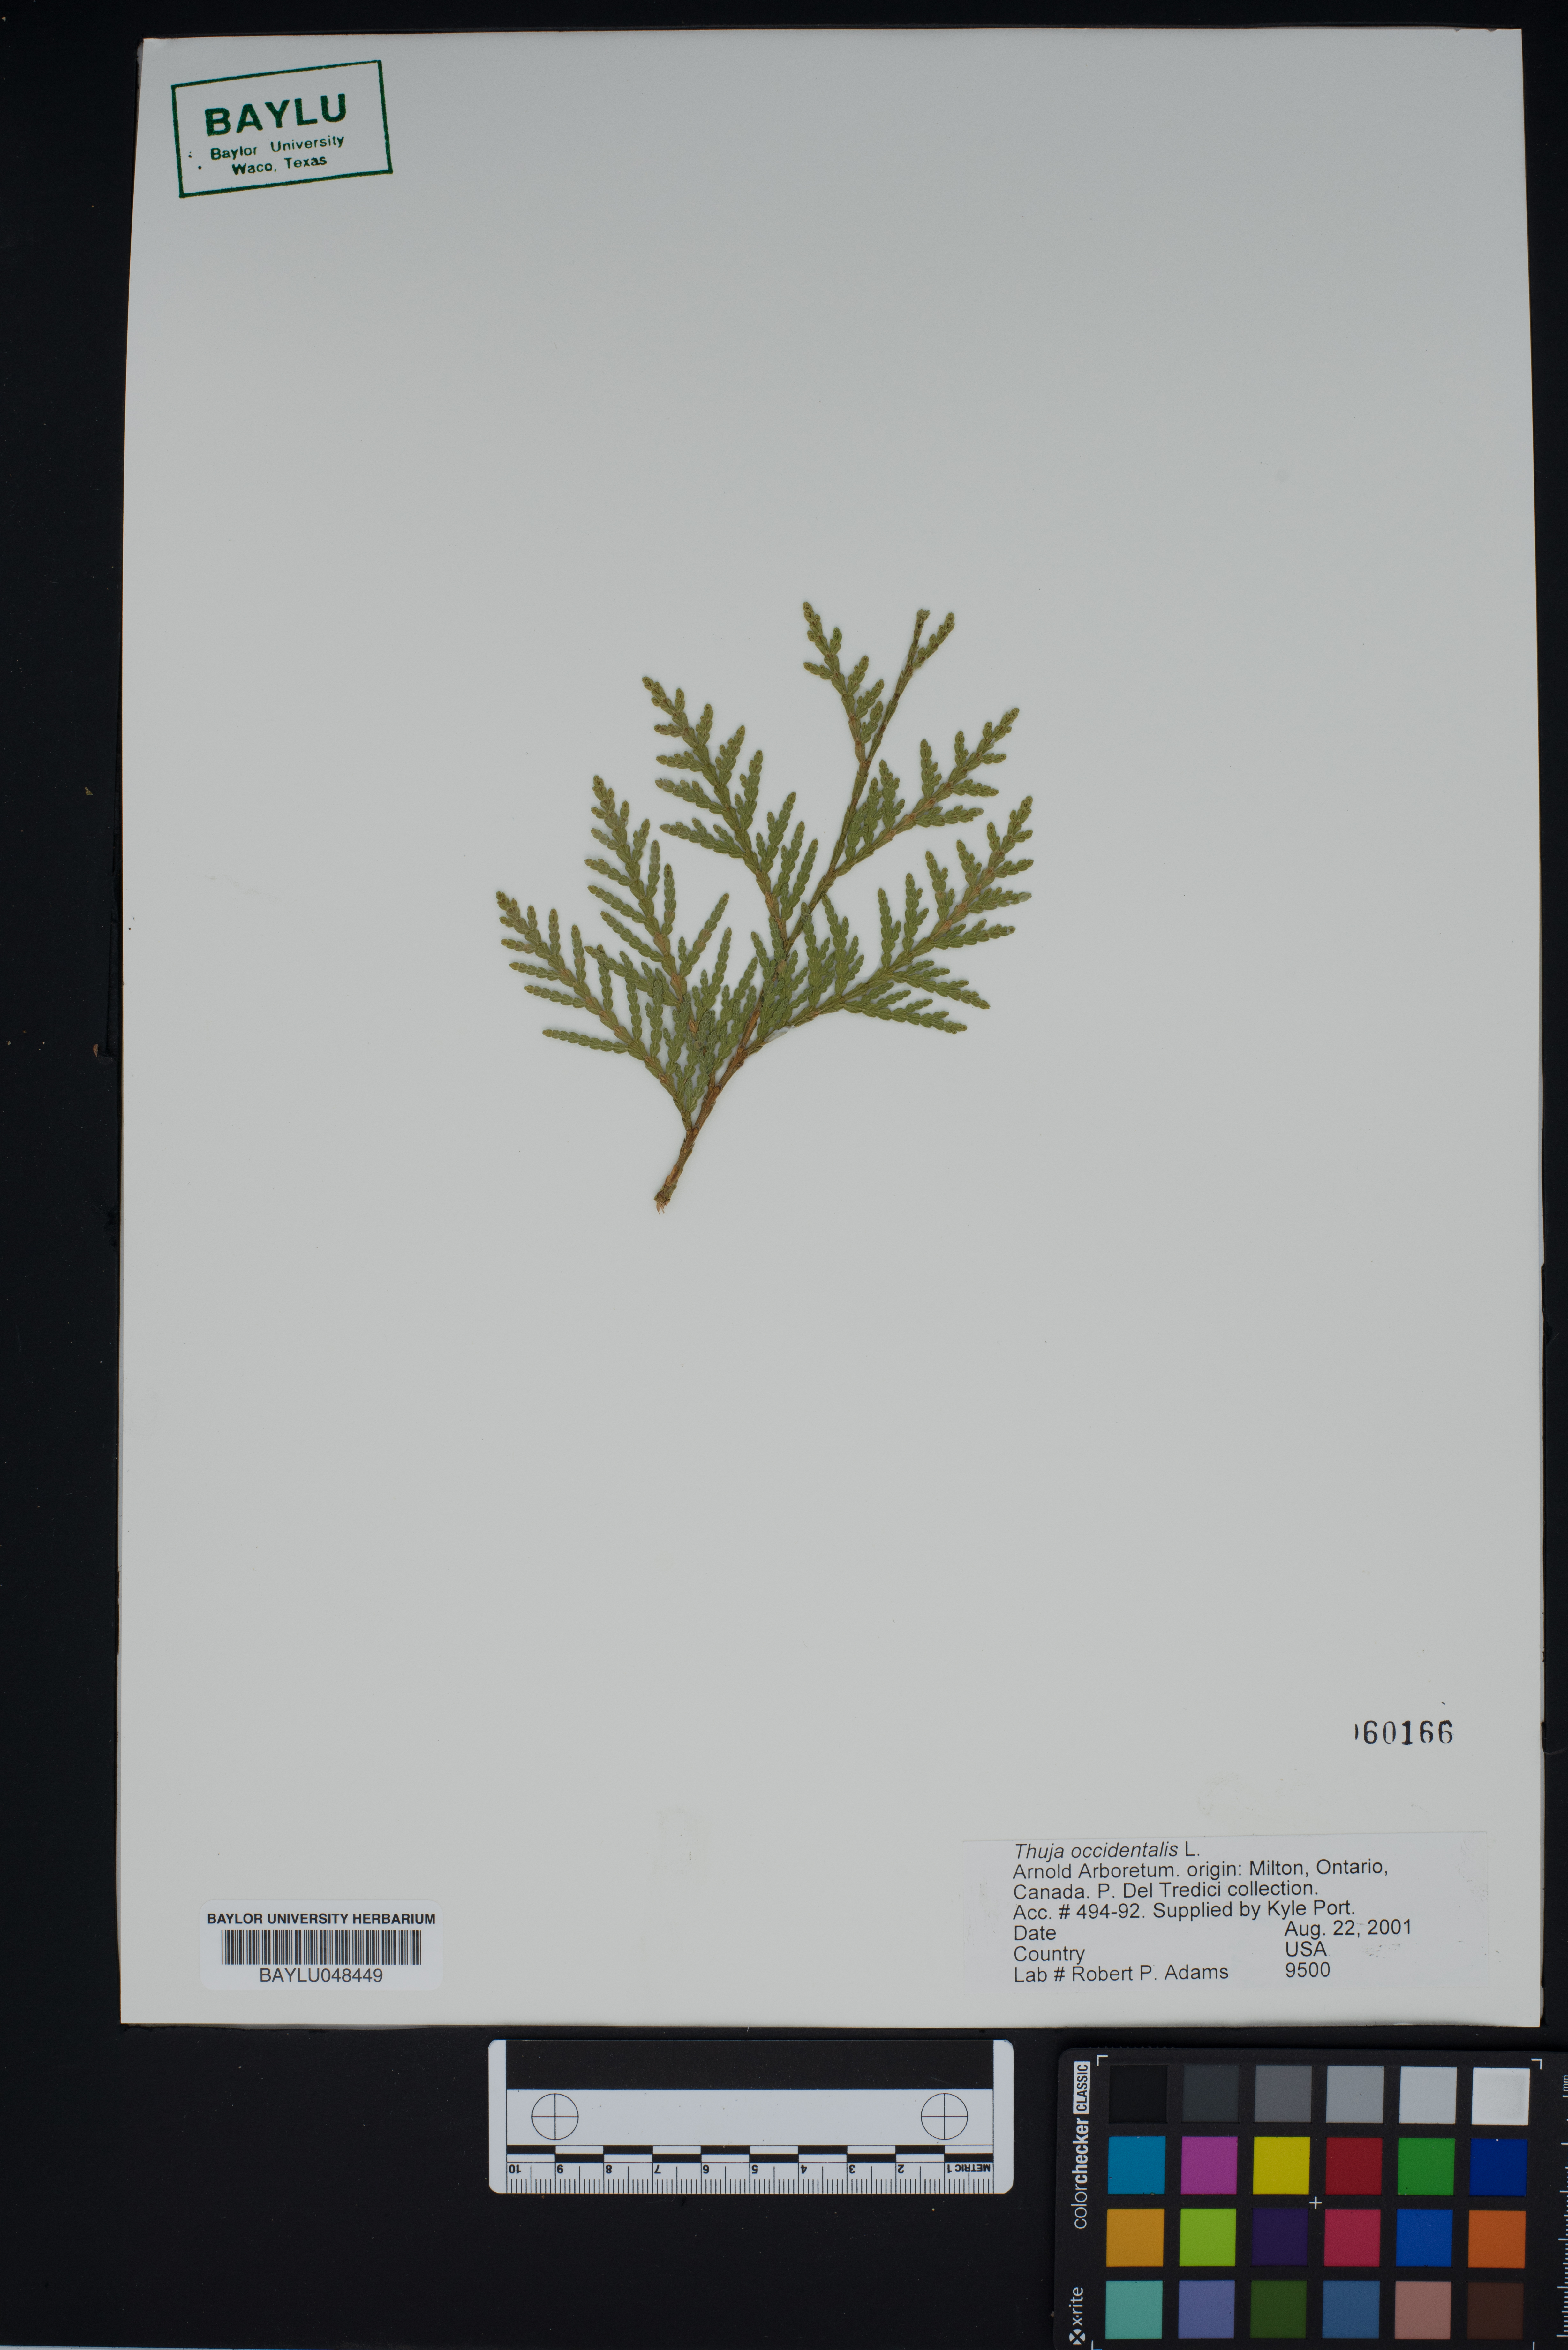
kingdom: Plantae
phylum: Tracheophyta
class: Pinopsida
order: Pinales
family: Cupressaceae
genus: Thuja
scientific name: Thuja occidentalis
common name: Northern white-cedar
